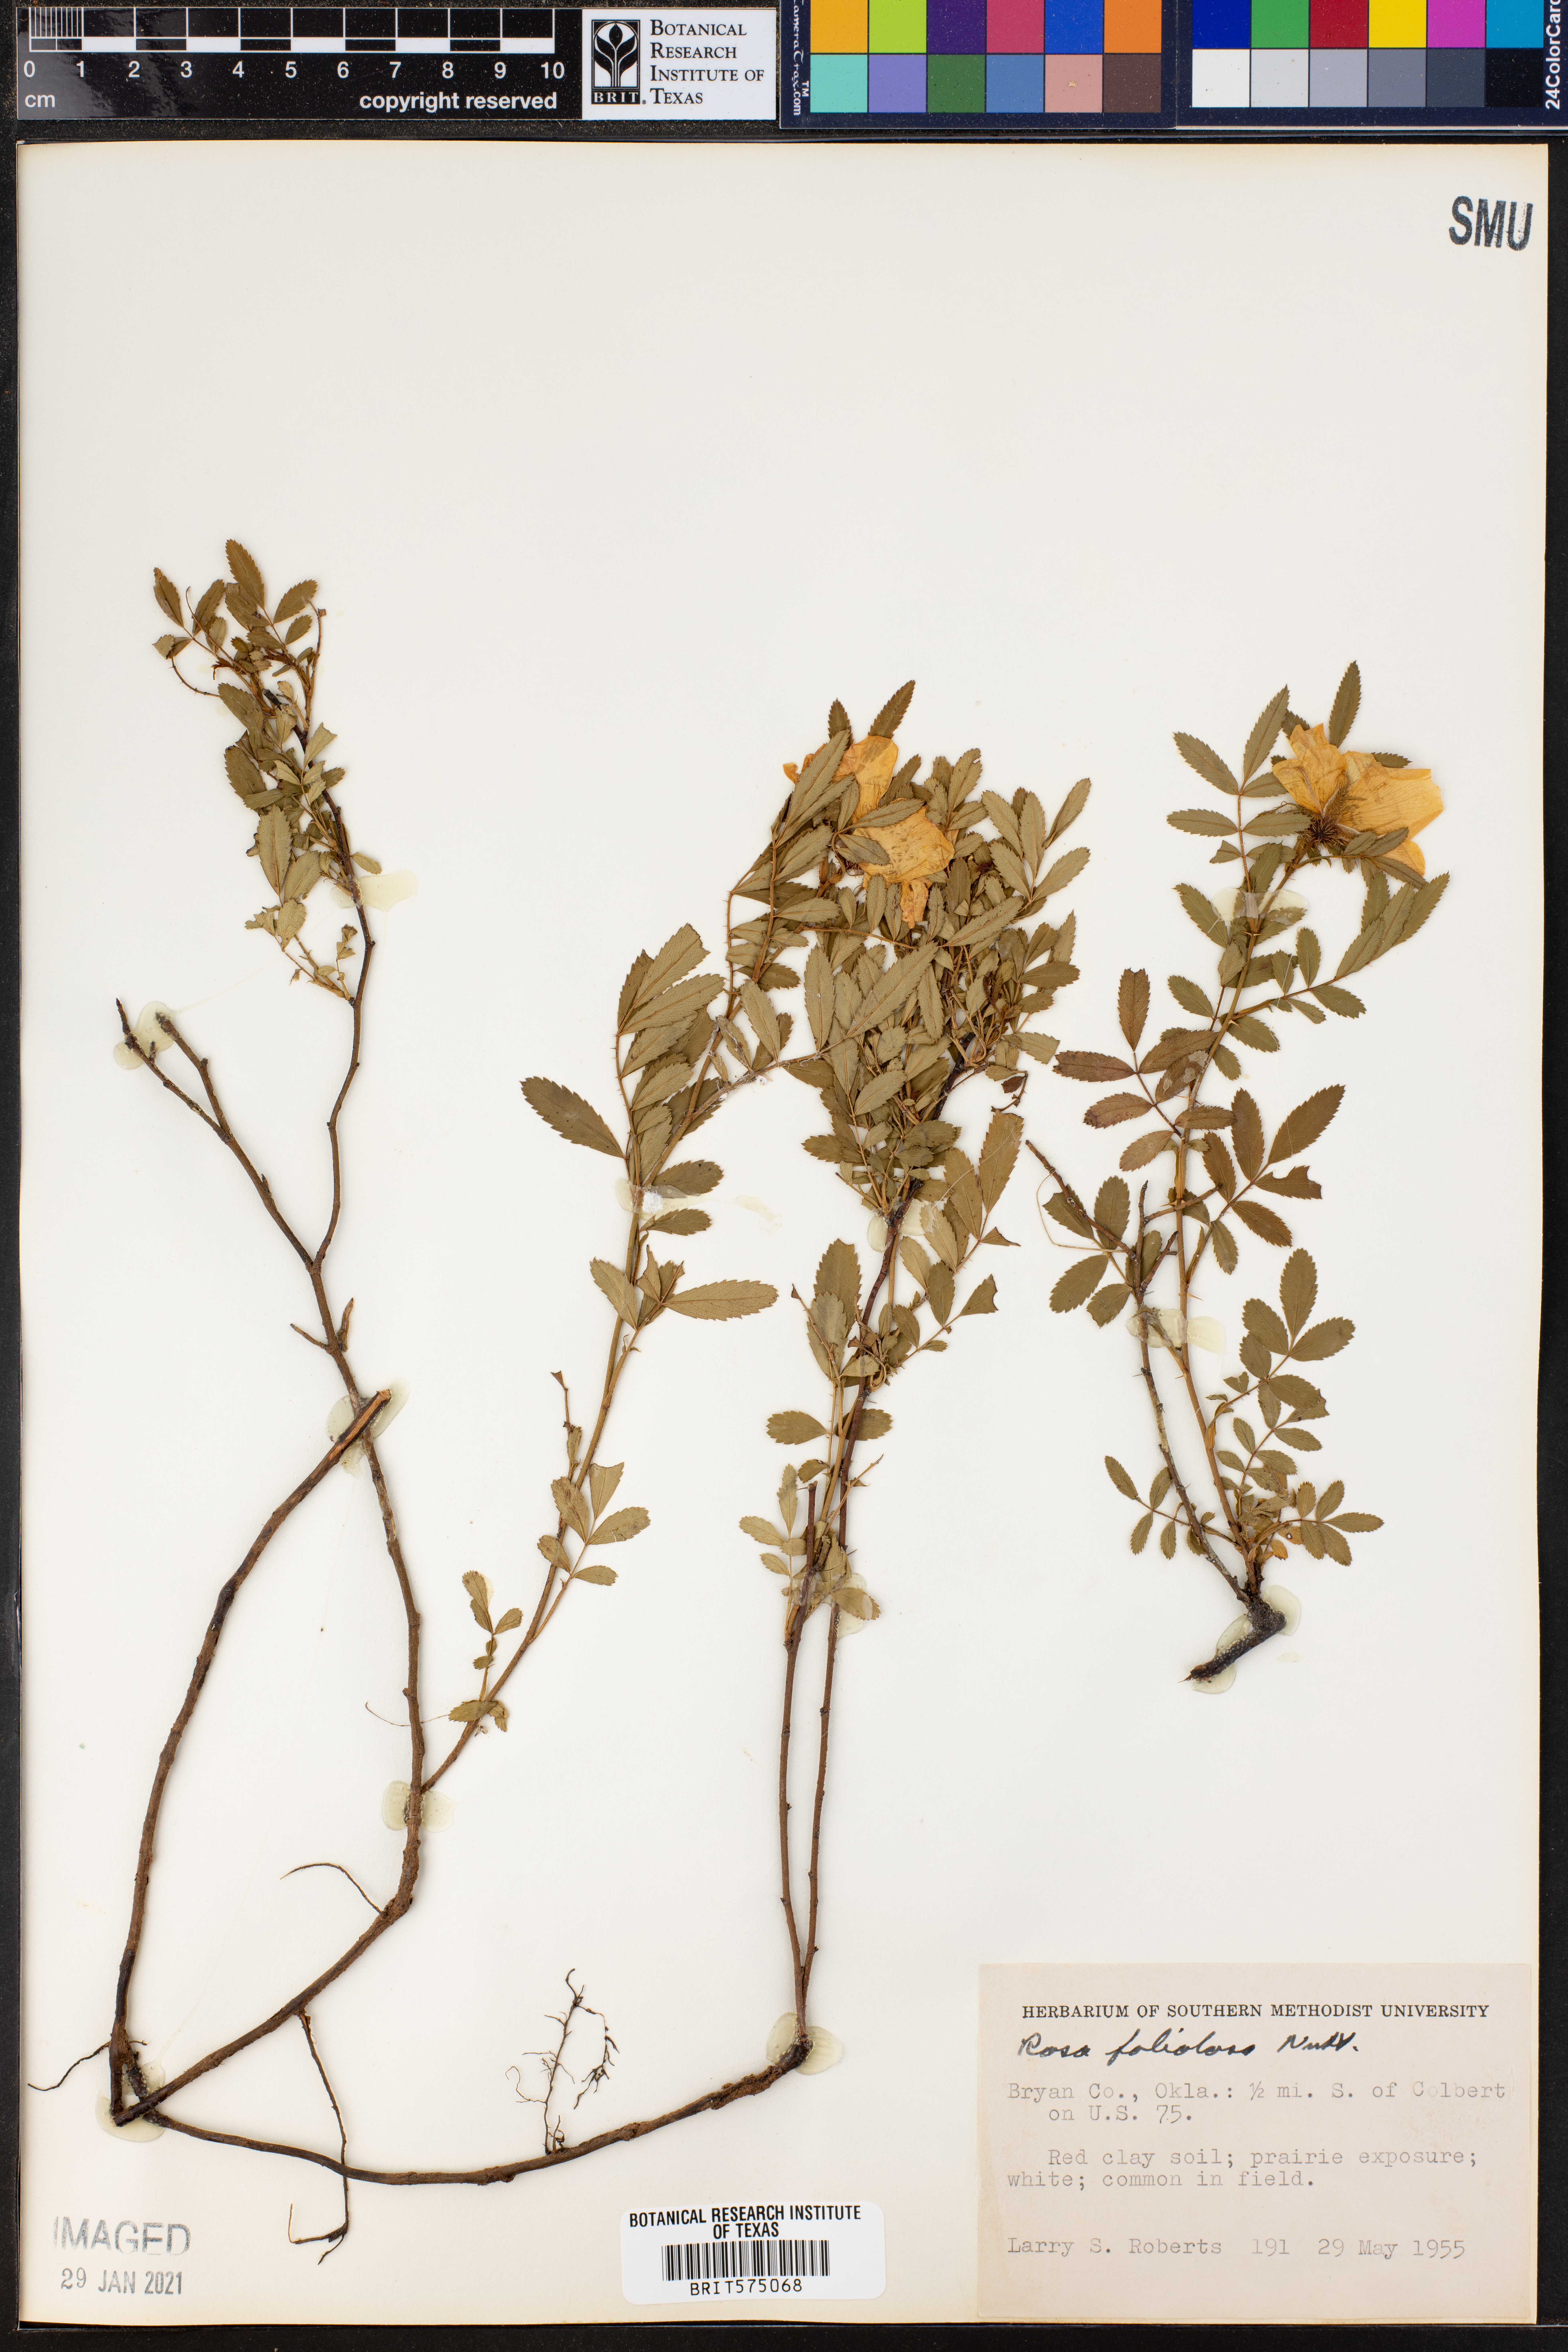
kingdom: Plantae
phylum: Tracheophyta
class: Magnoliopsida
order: Rosales
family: Rosaceae
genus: Rosa
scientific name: Rosa foliolosa
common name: White prairie rose
